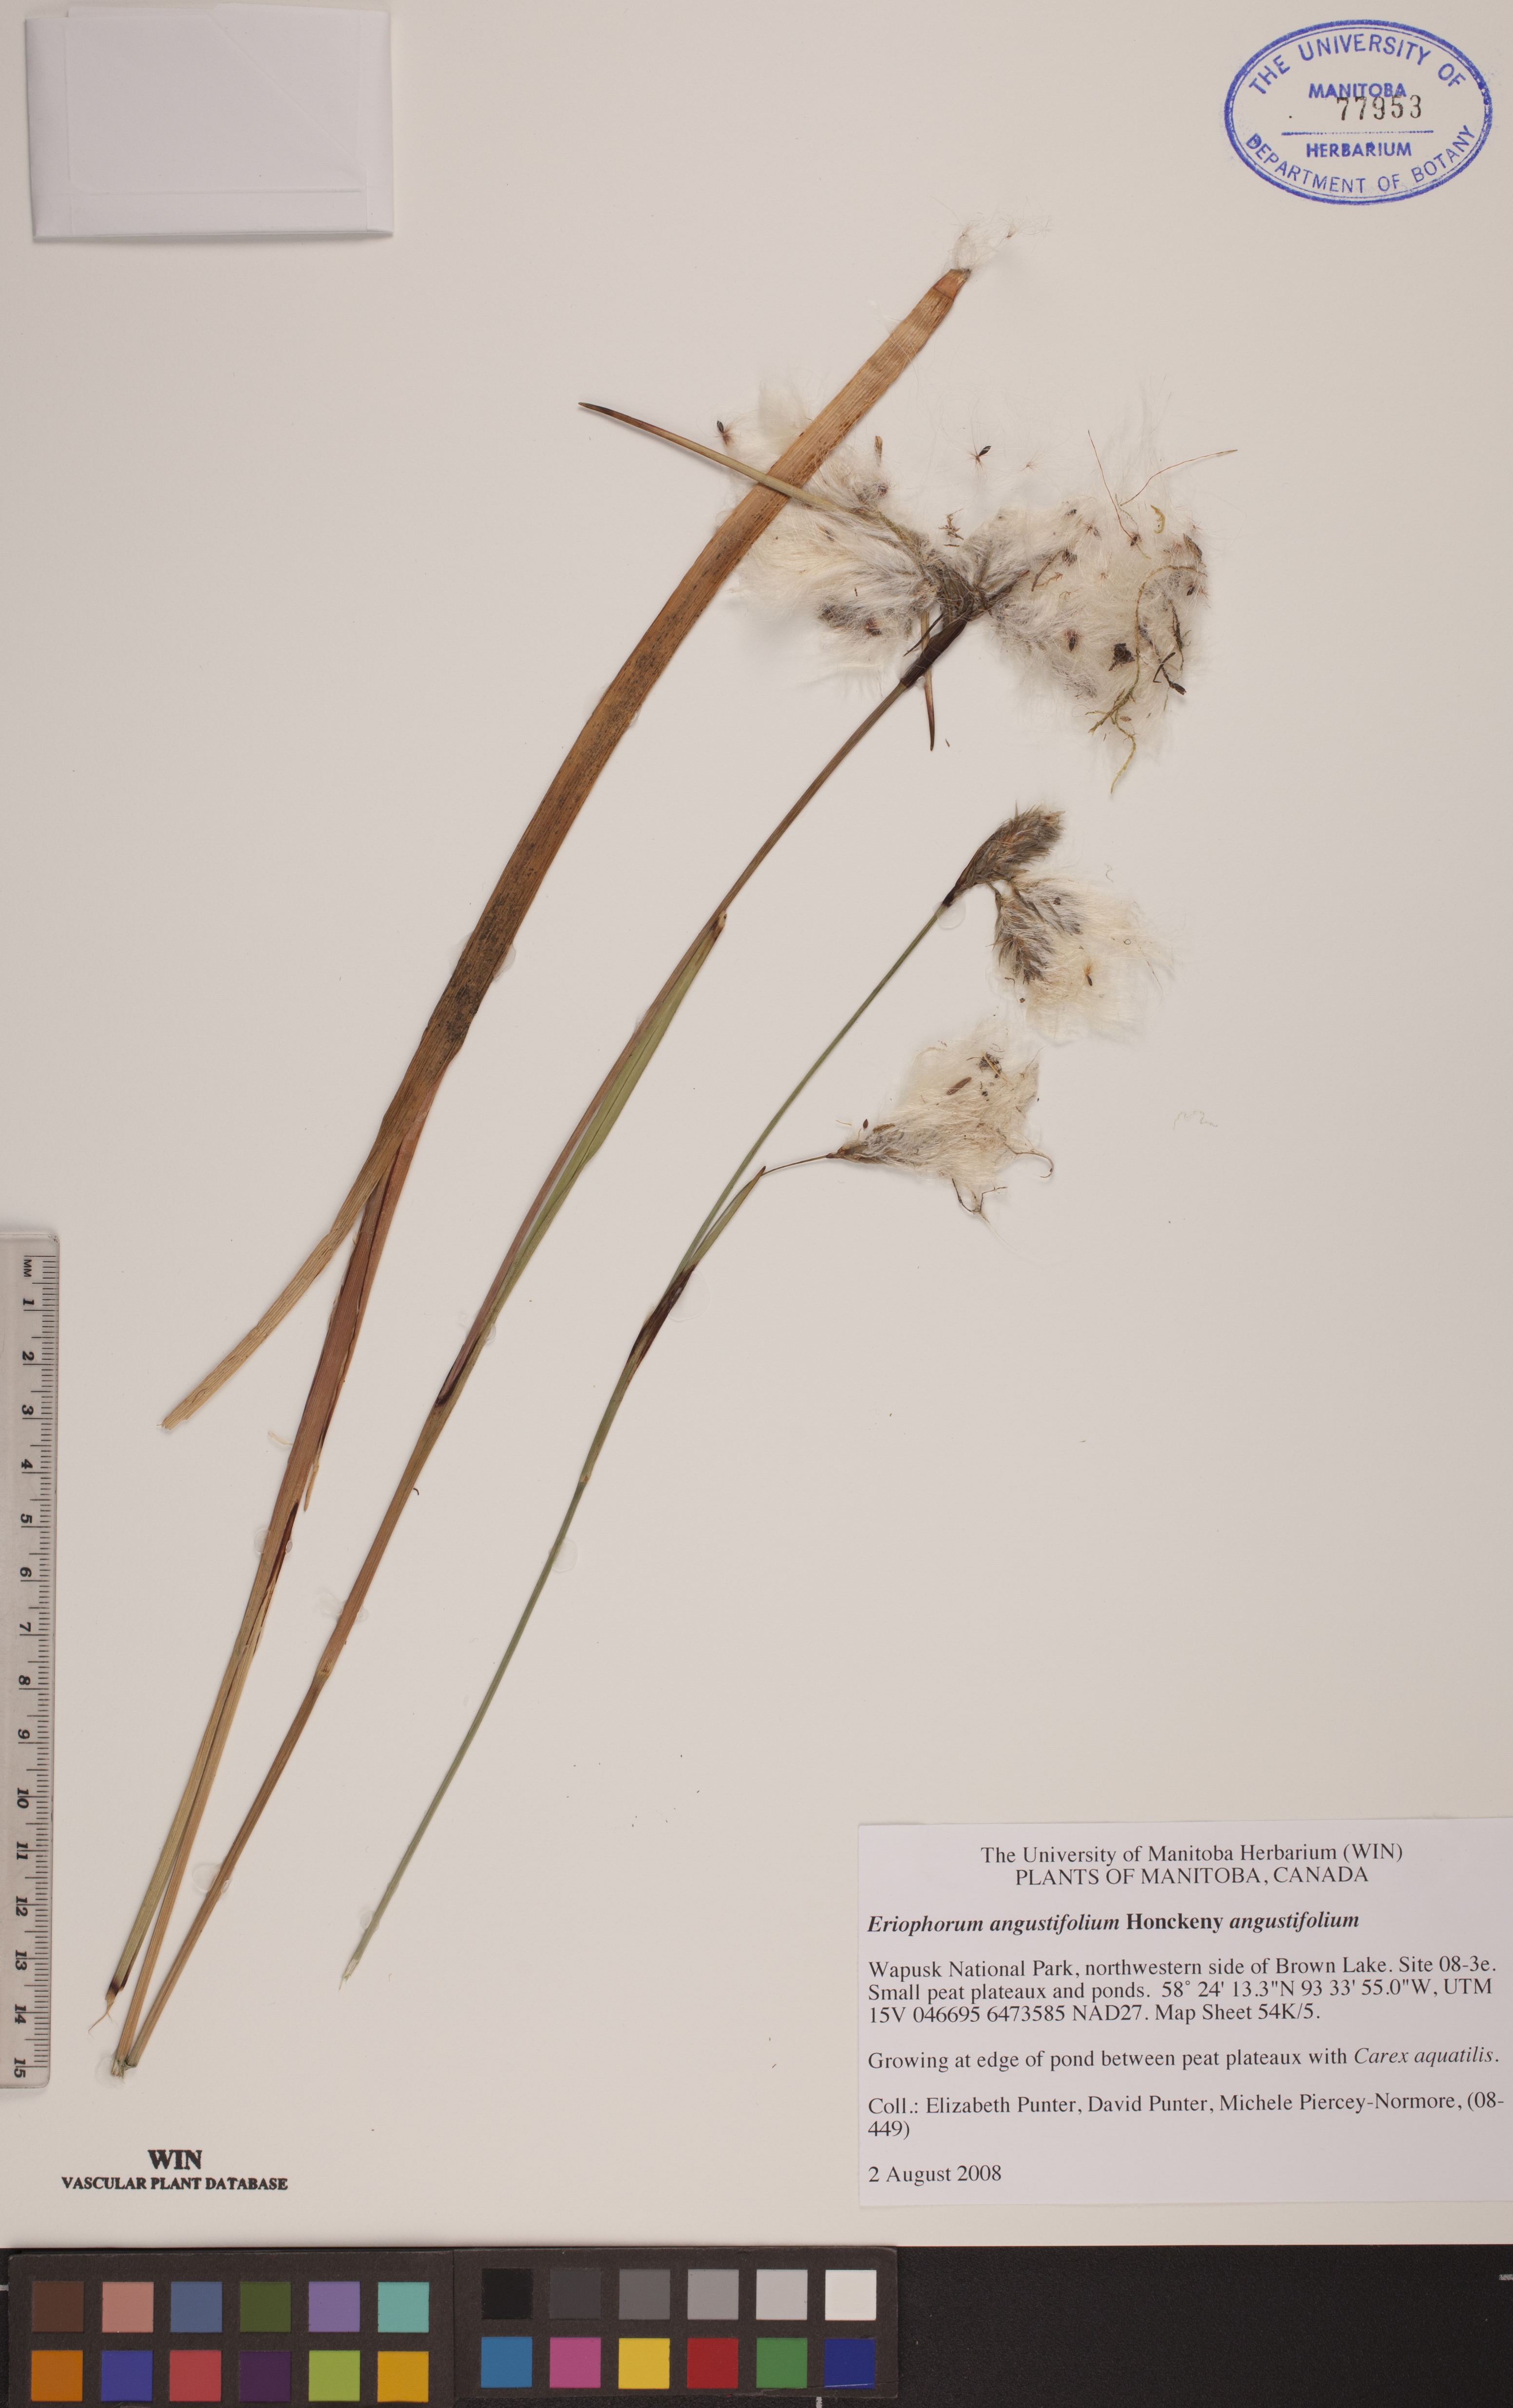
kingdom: Plantae
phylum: Tracheophyta
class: Liliopsida
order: Poales
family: Cyperaceae
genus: Eriophorum
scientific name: Eriophorum angustifolium
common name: Common cottongrass
